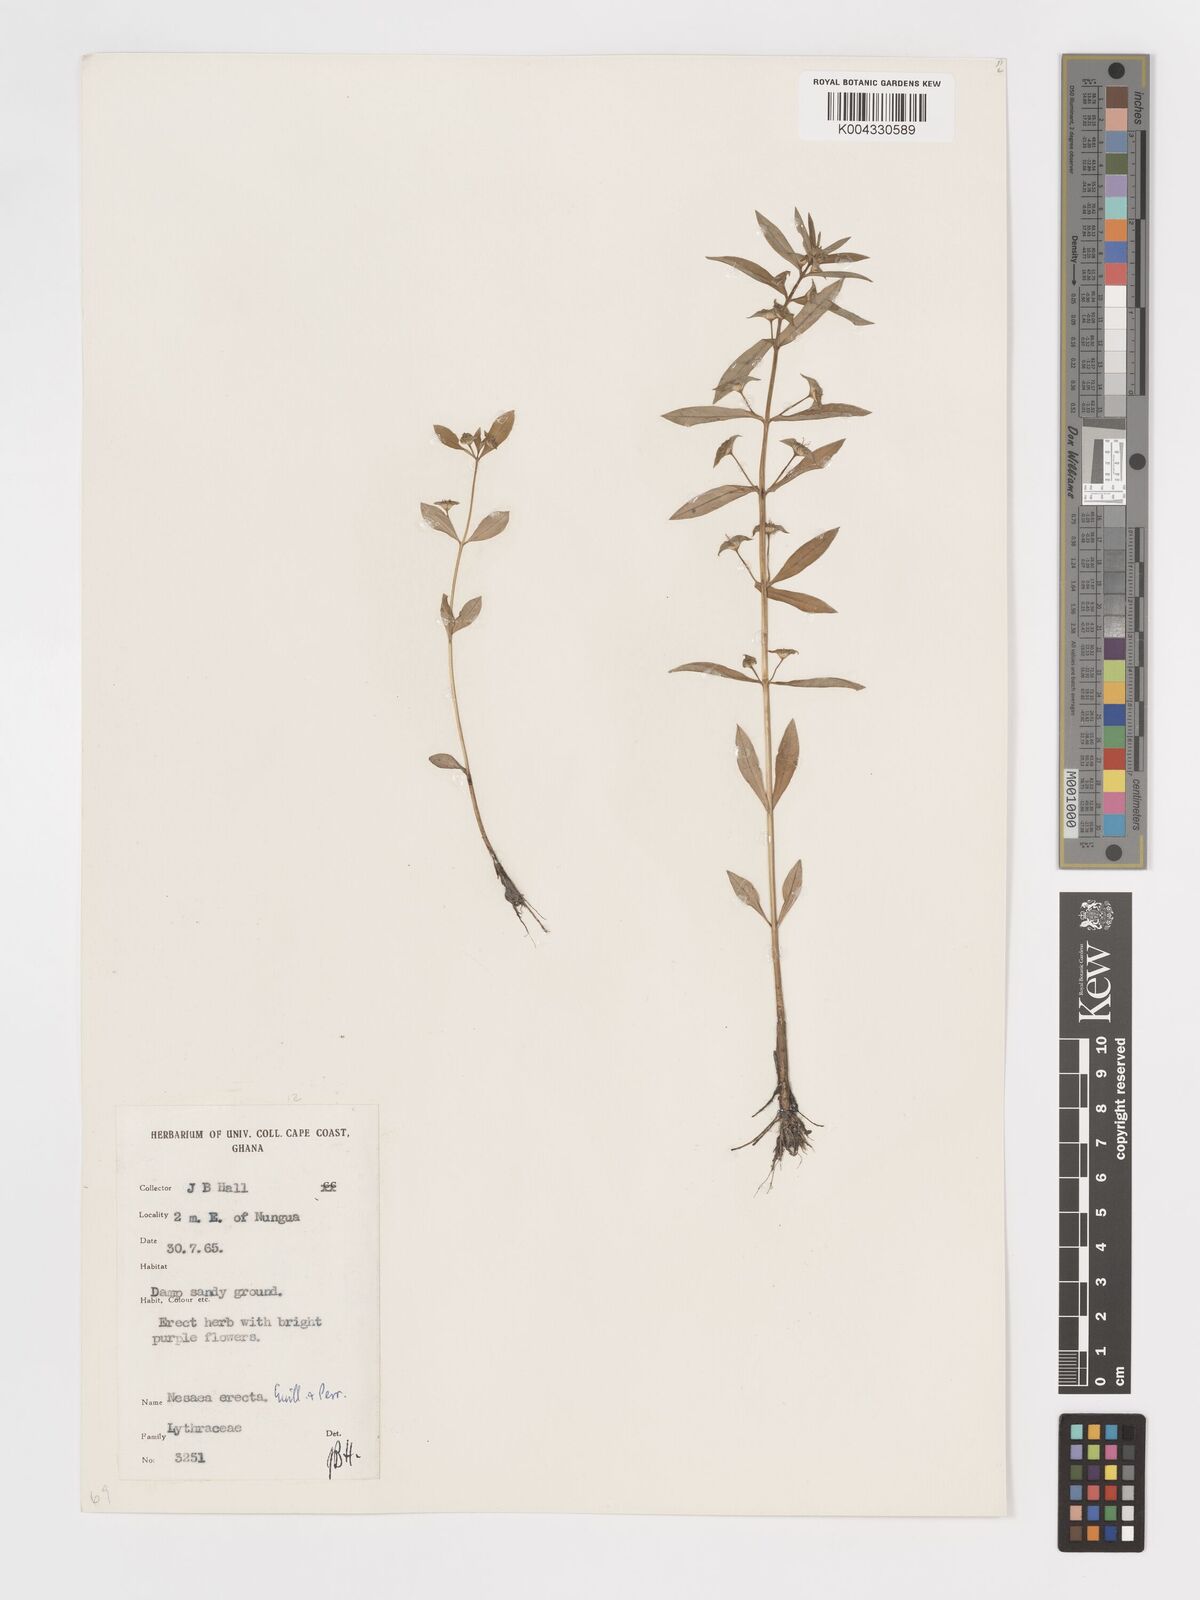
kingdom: Plantae
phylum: Tracheophyta
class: Magnoliopsida
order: Myrtales
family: Lythraceae
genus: Ammannia
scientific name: Ammannia erecta
